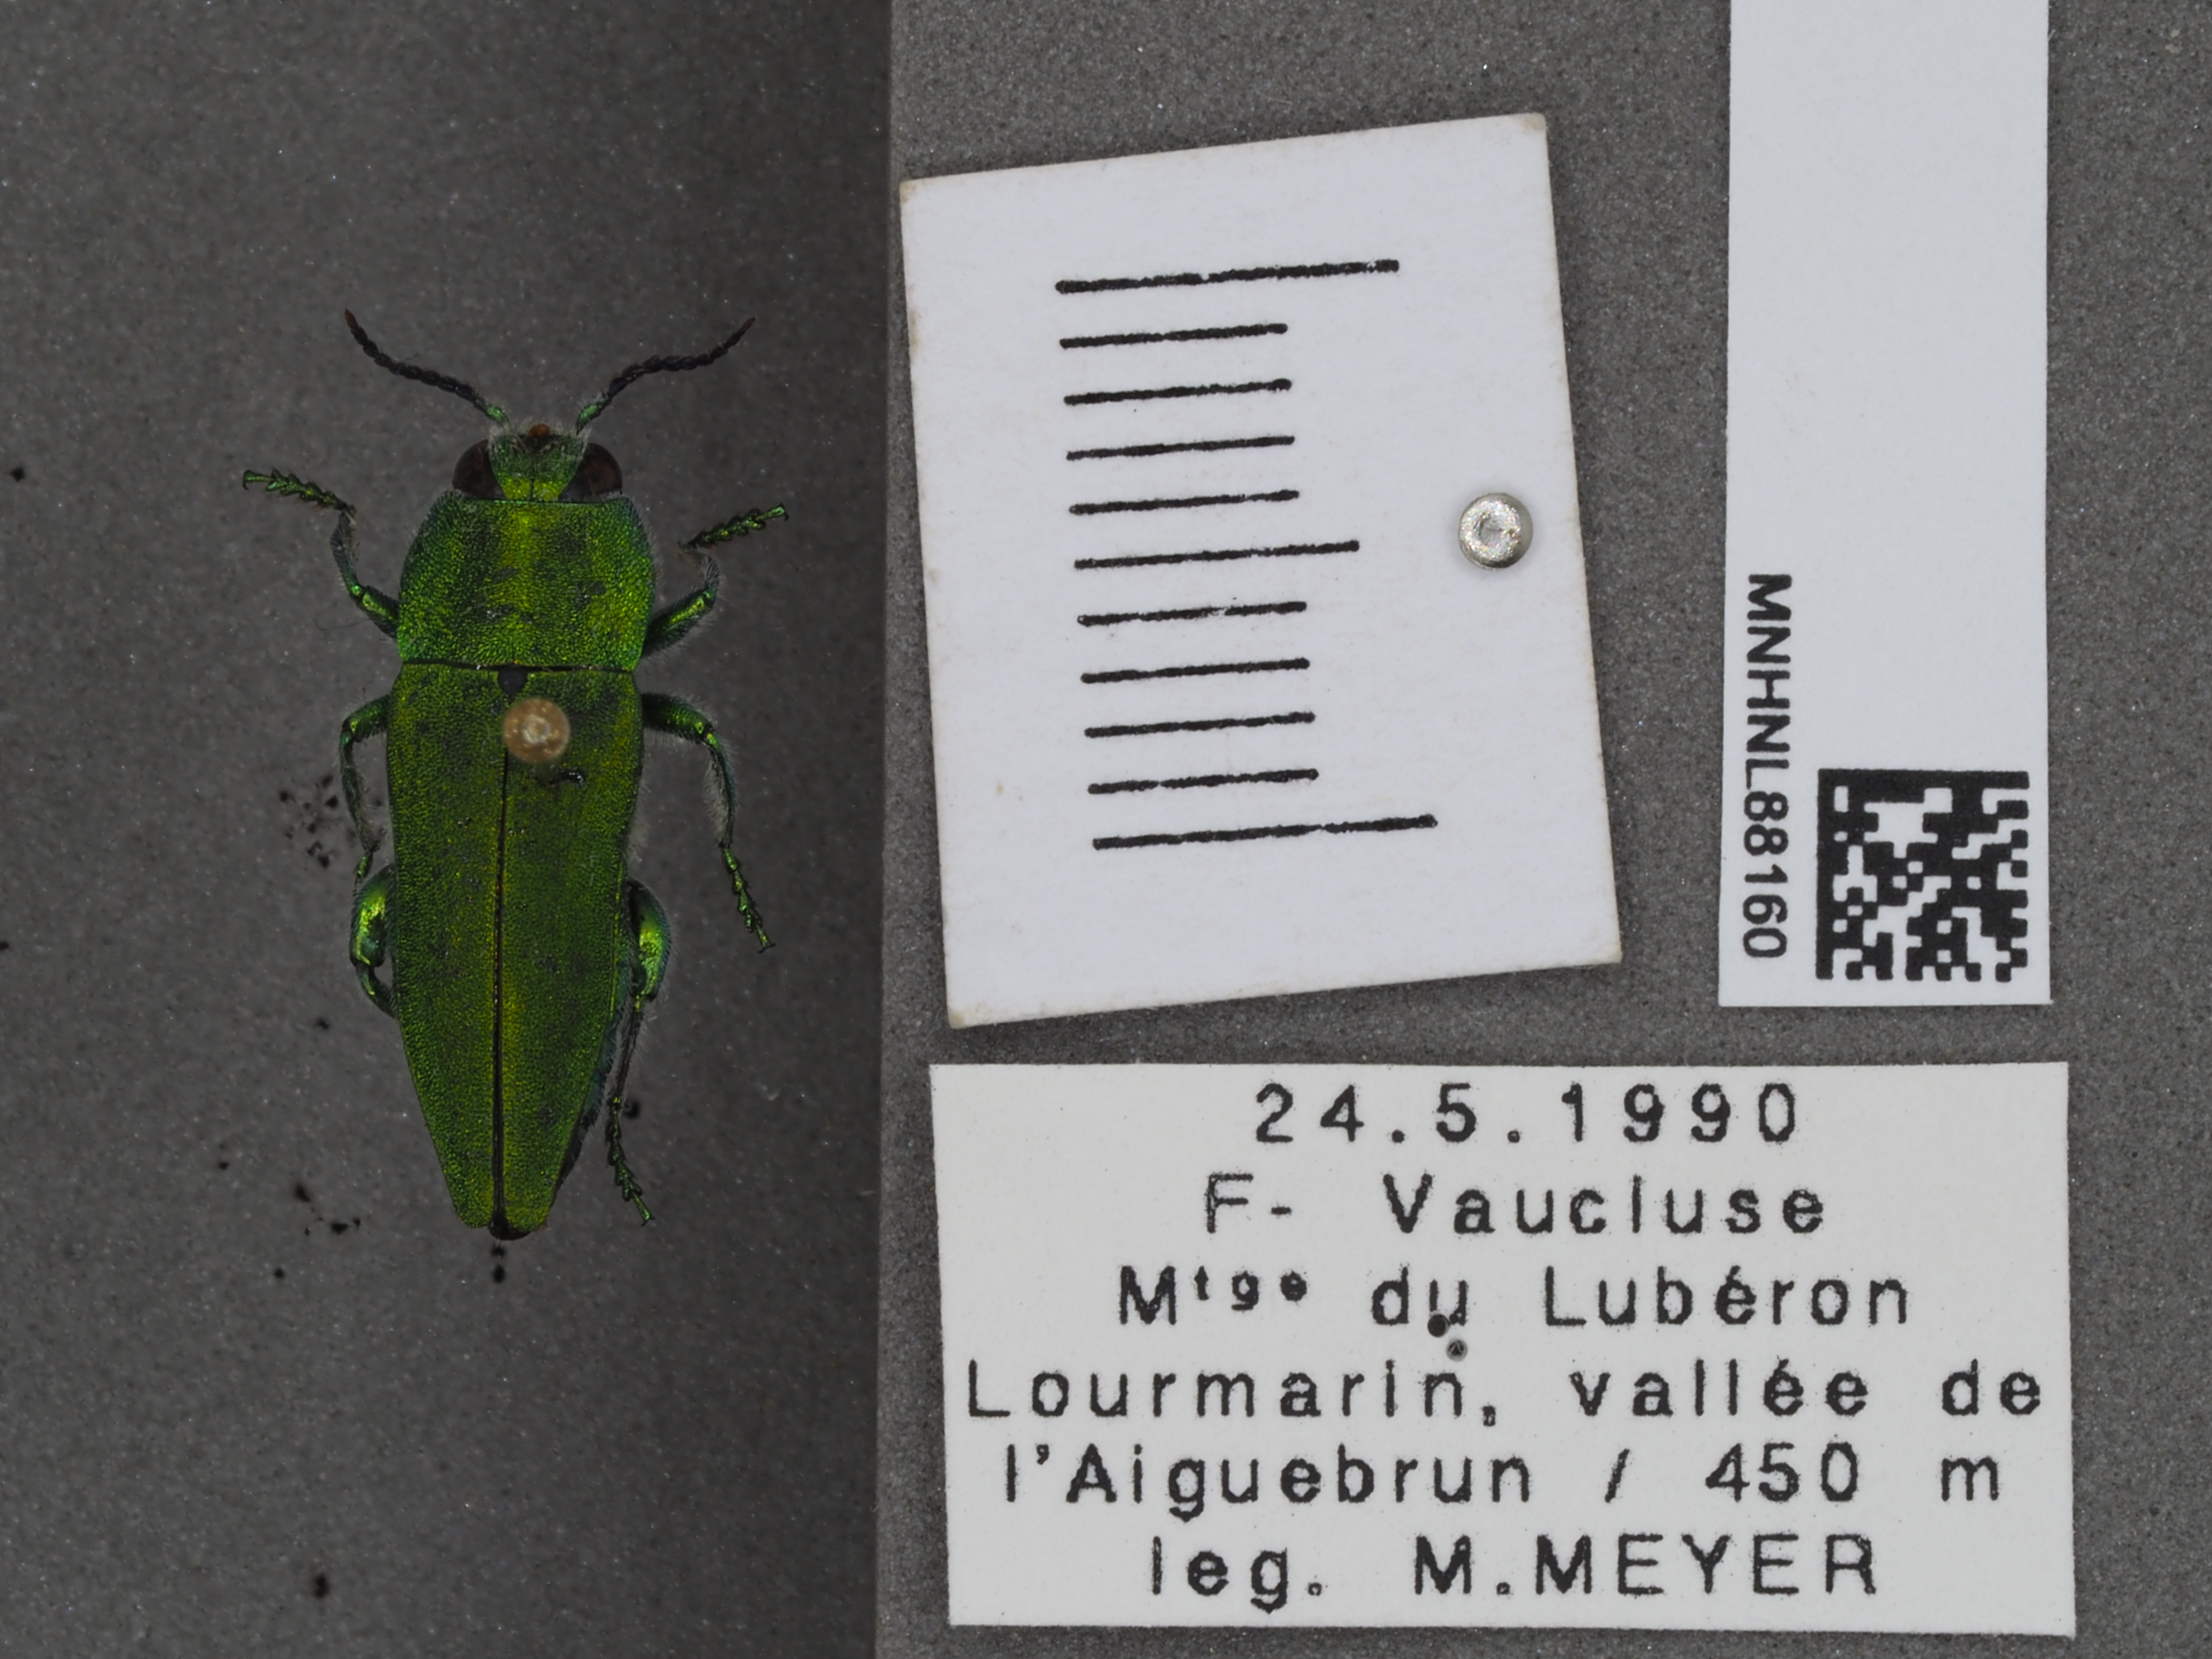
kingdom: Animalia
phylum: Arthropoda
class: Insecta
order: Coleoptera
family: Buprestidae
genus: Anthaxia
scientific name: Anthaxia hungarica
